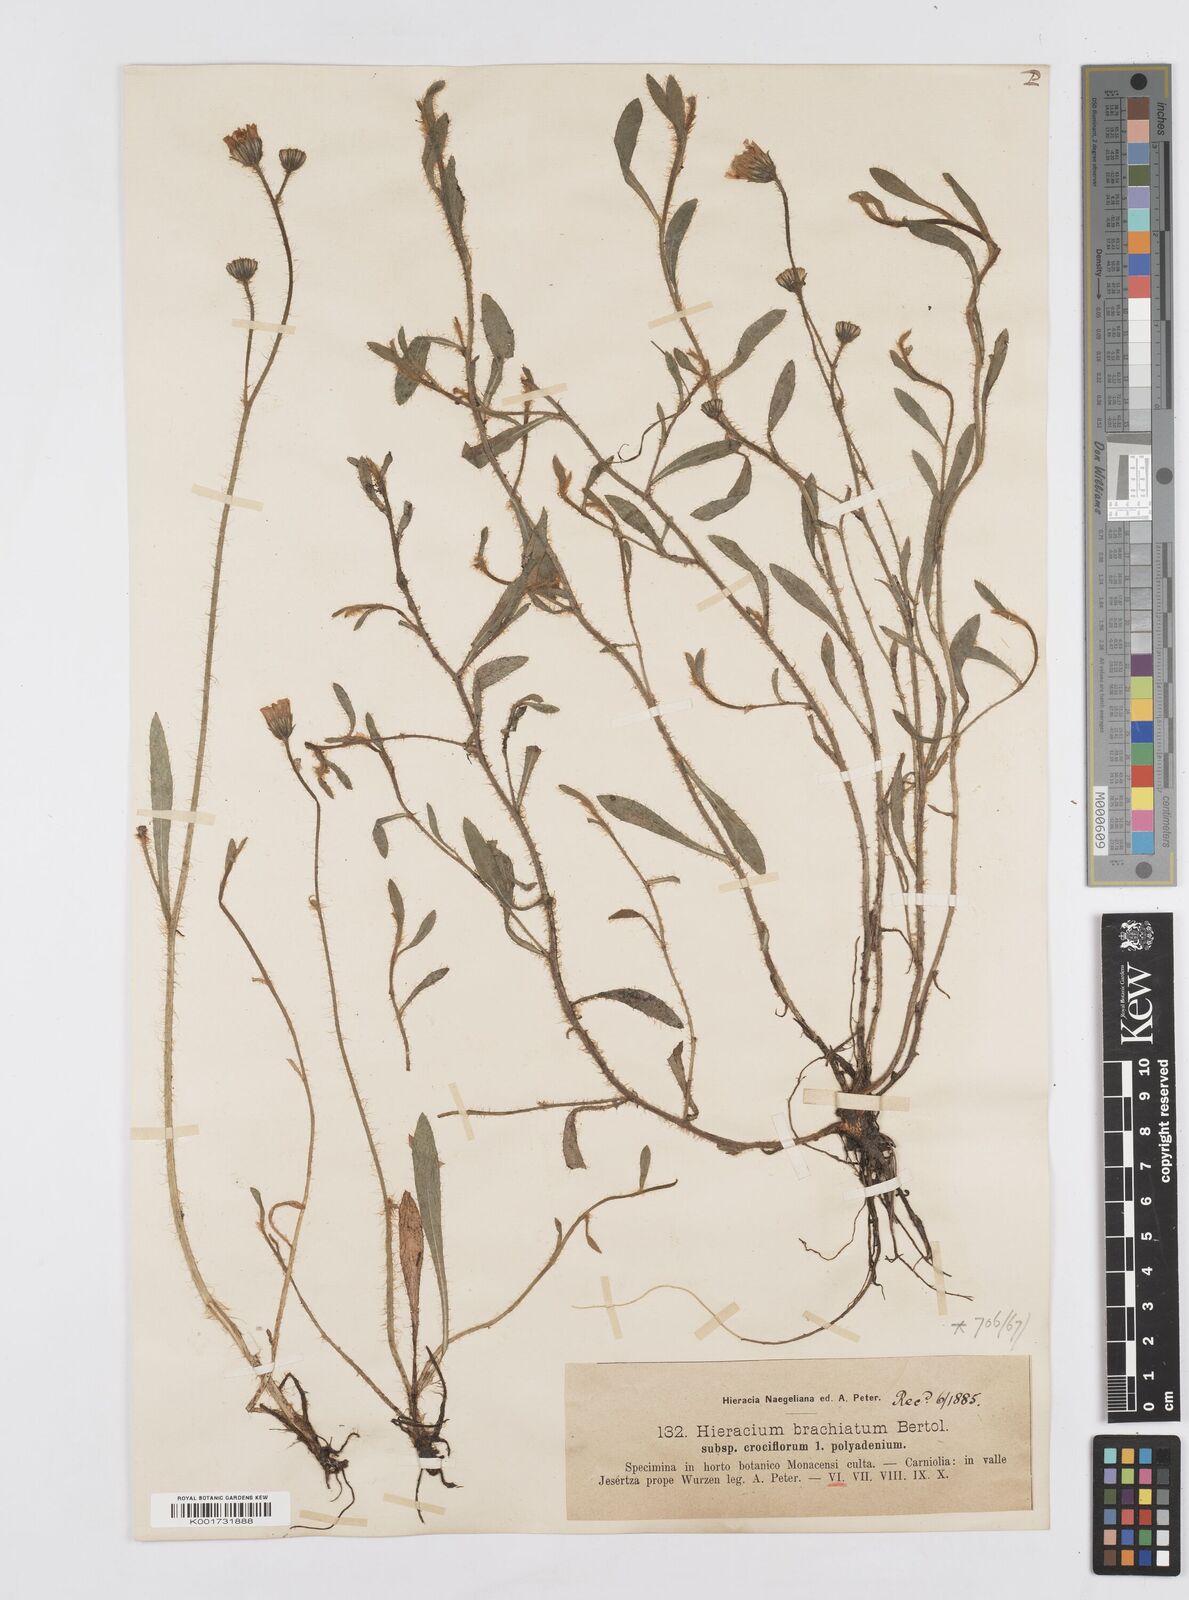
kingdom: Plantae
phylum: Tracheophyta
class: Magnoliopsida
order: Asterales
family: Asteraceae
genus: Pilosella
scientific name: Pilosella acutifolia
